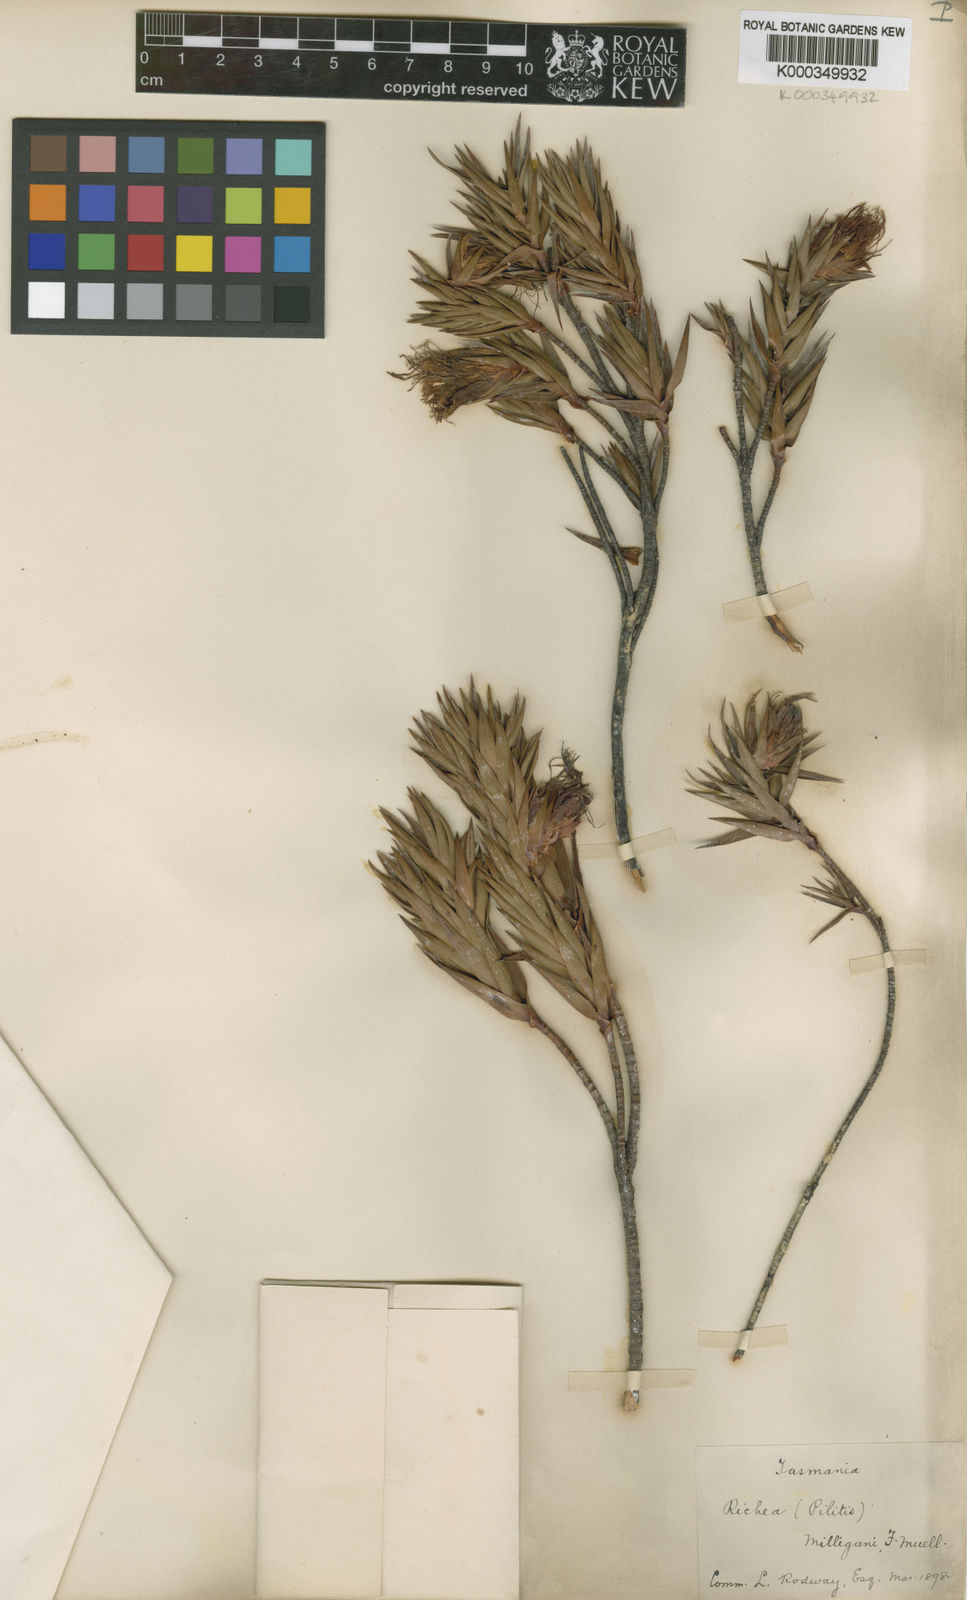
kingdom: Plantae
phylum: Tracheophyta
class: Magnoliopsida
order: Ericales
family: Ericaceae
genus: Dracophyllum
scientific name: Dracophyllum tasmanicum
